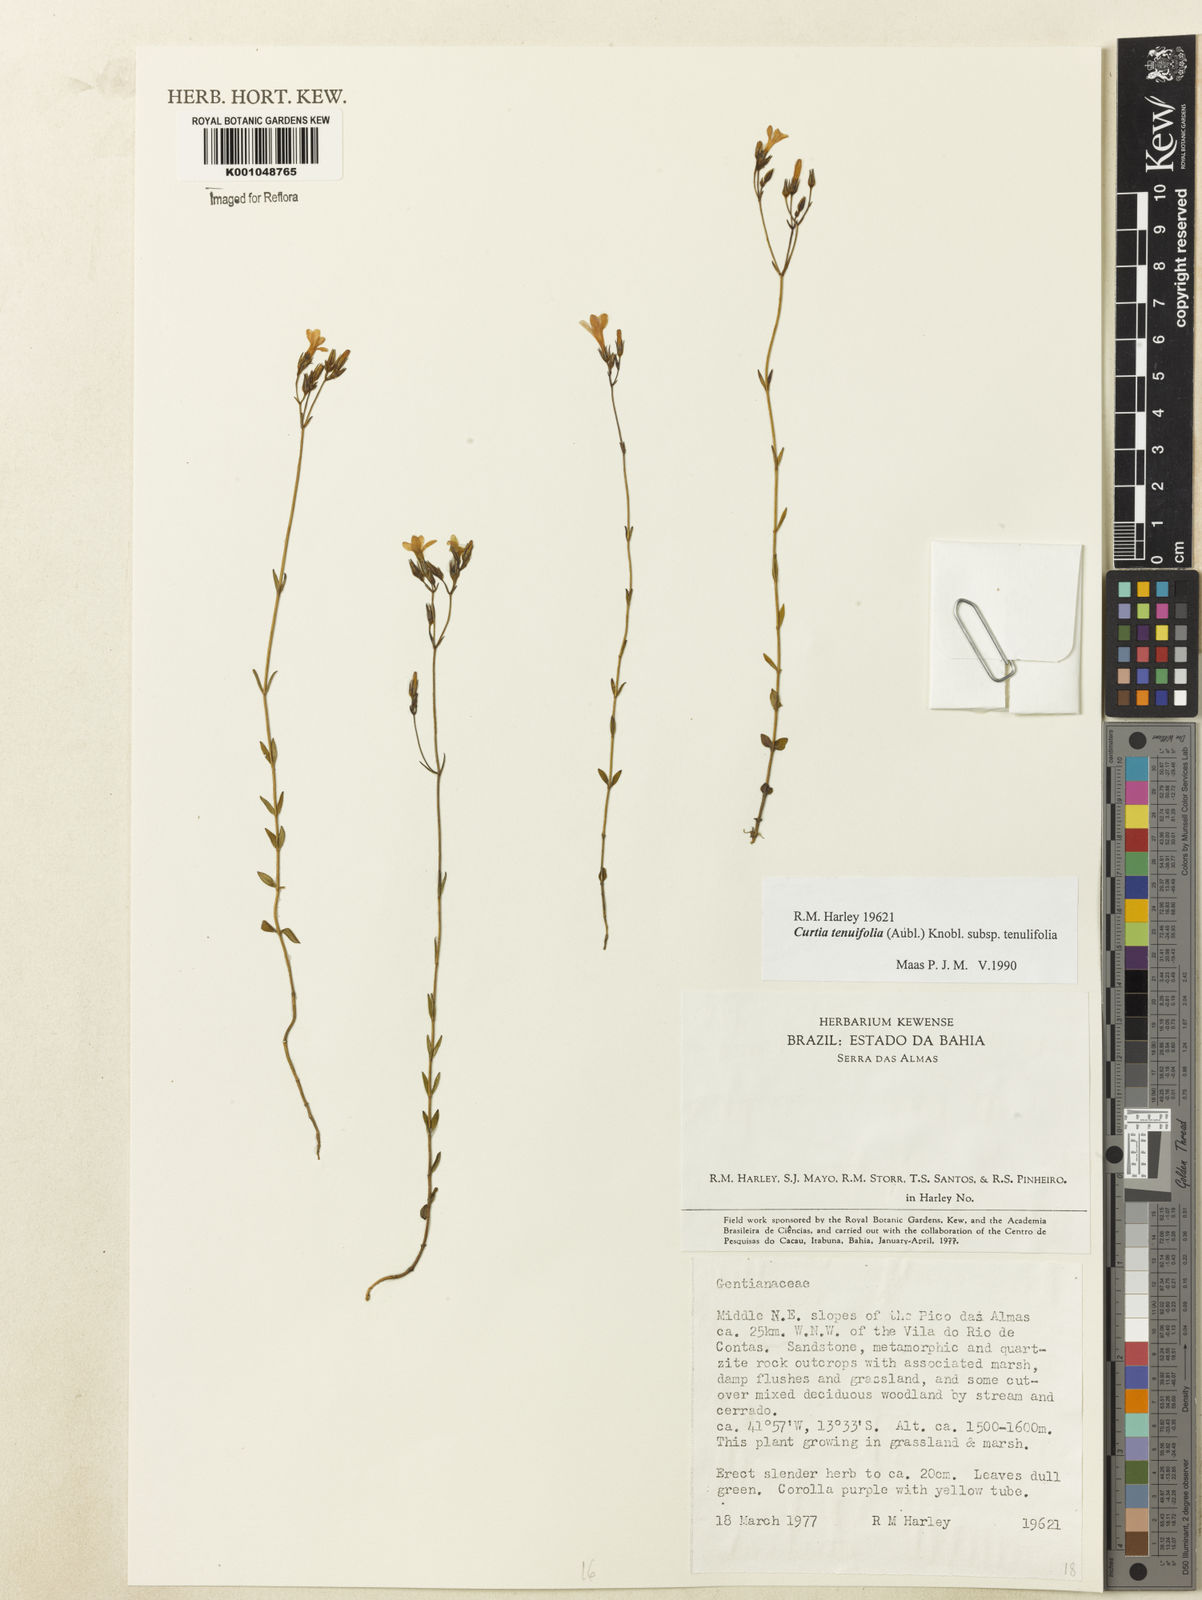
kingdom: Plantae
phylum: Tracheophyta
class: Magnoliopsida
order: Gentianales
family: Gentianaceae
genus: Curtia
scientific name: Curtia tenuifolia
